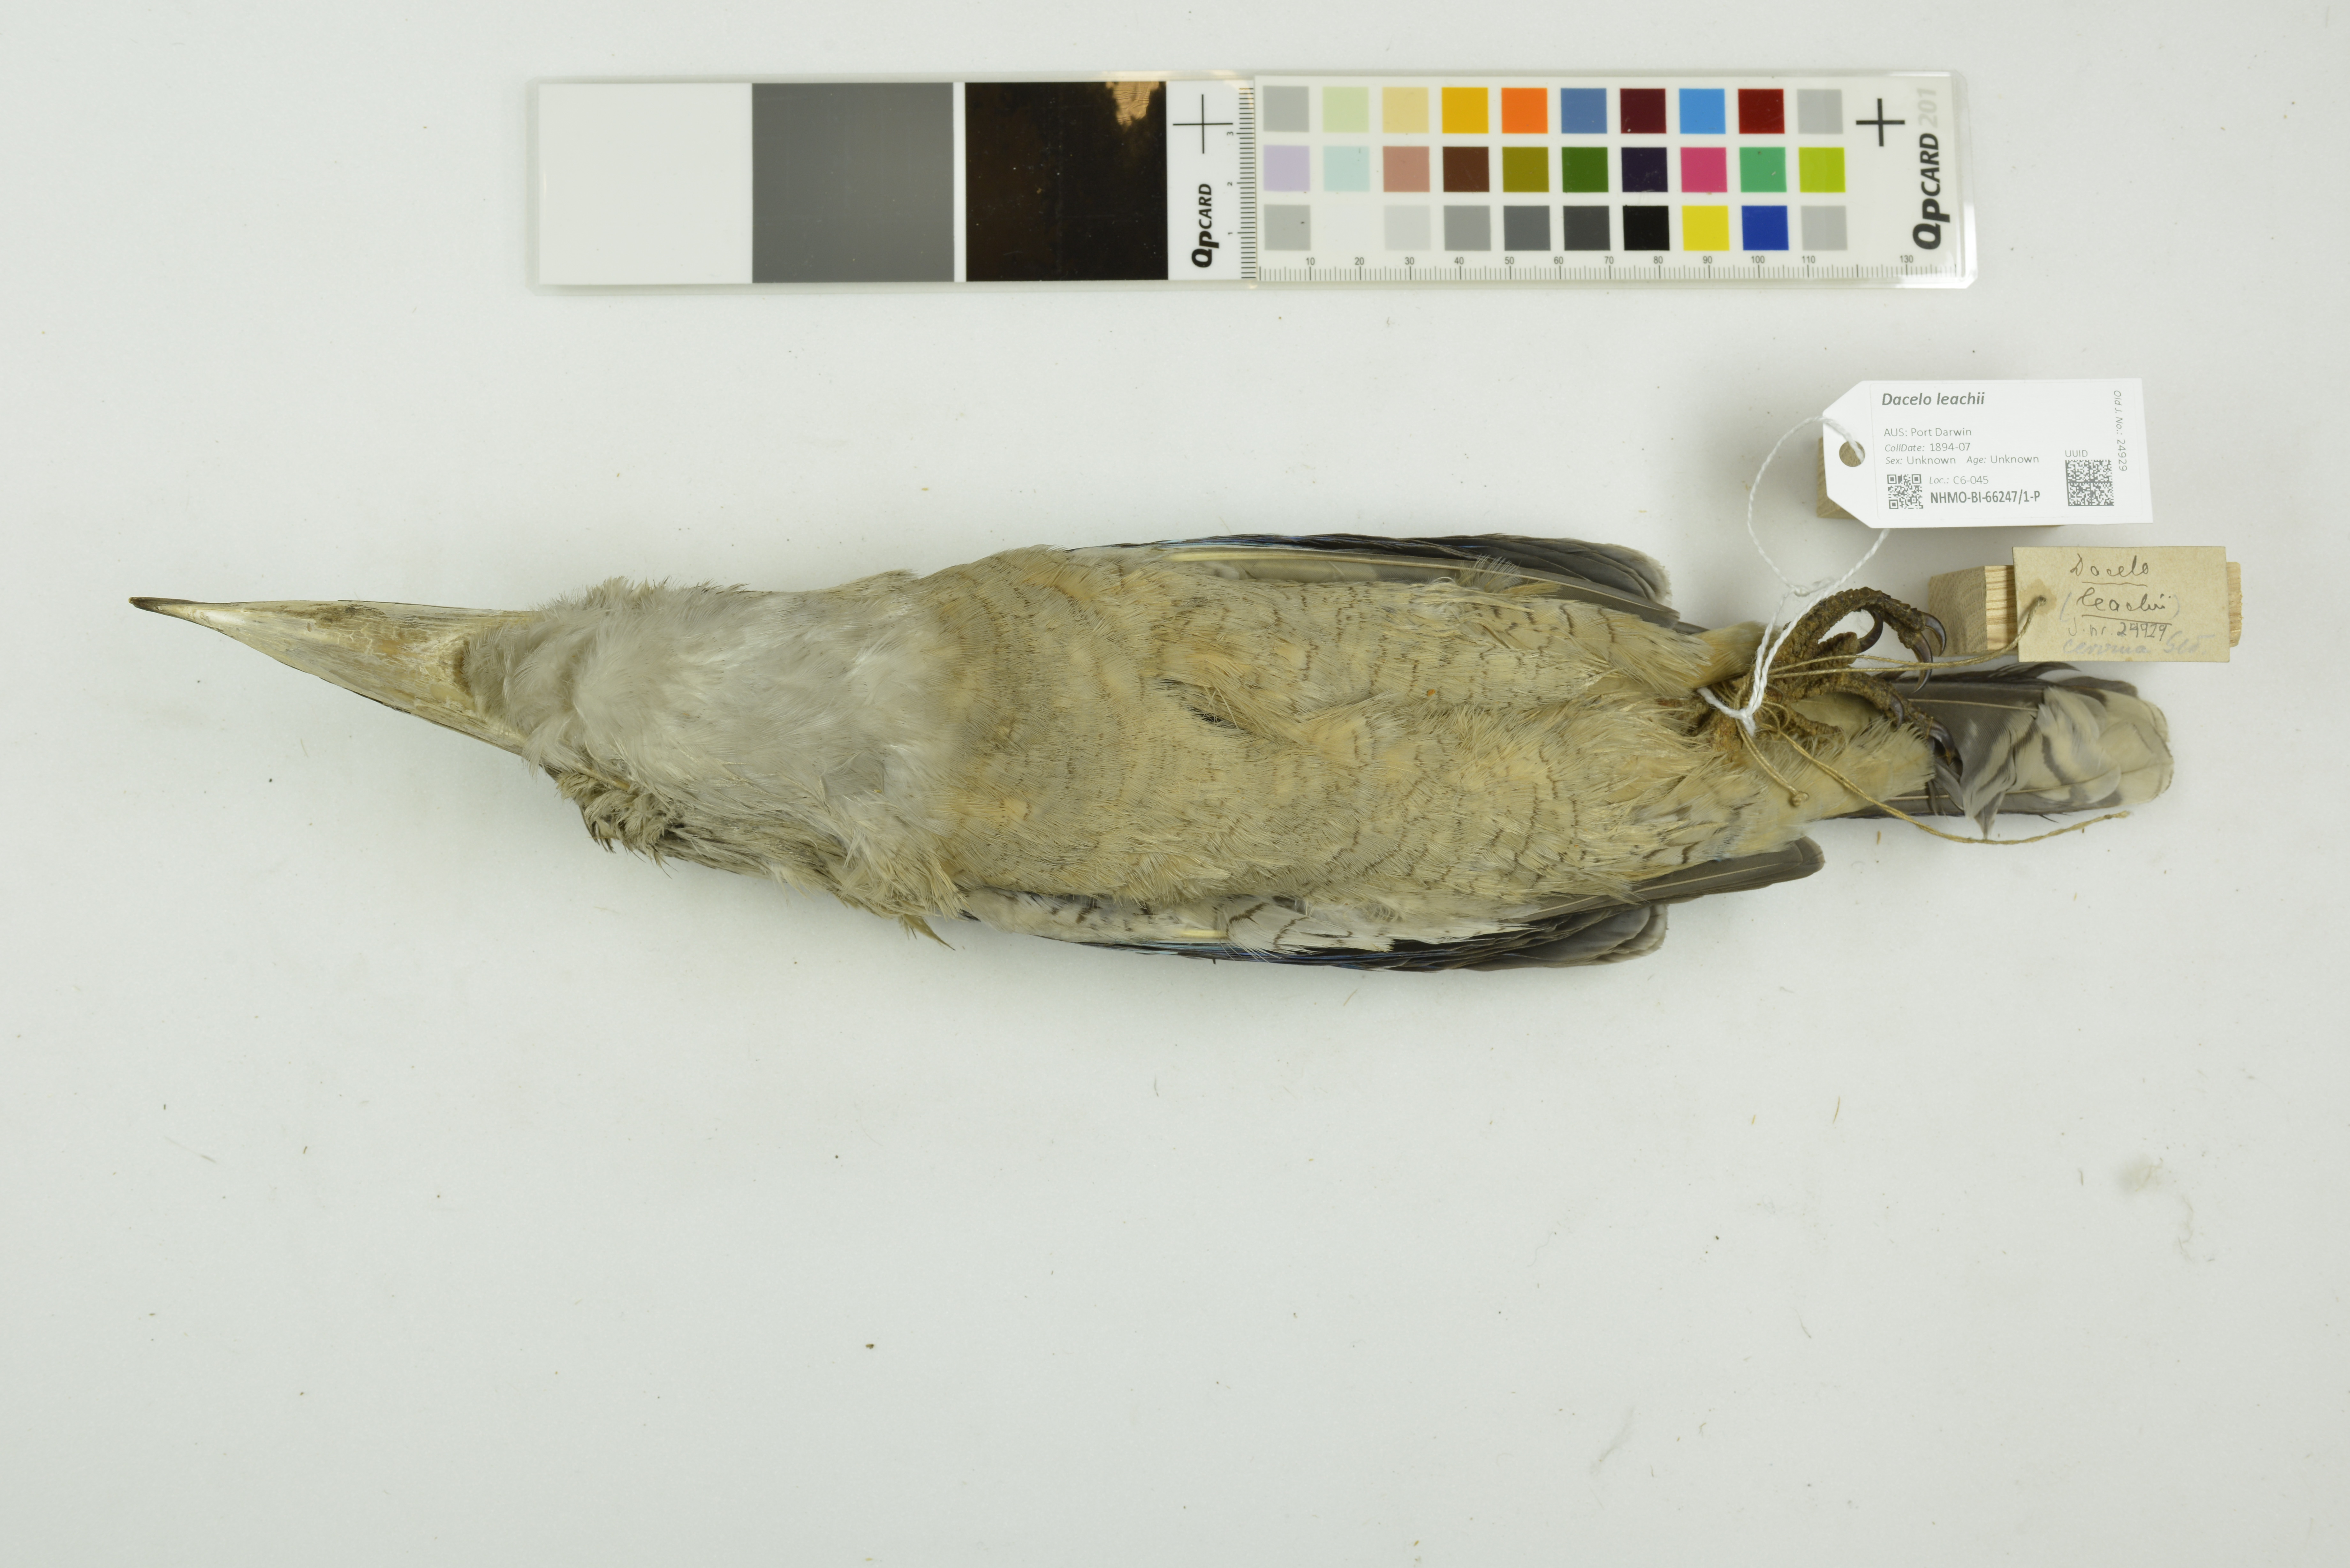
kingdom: Animalia
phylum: Chordata
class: Aves
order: Coraciiformes
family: Alcedinidae
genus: Dacelo
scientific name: Dacelo leachii
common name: Blue-winged kookaburra
